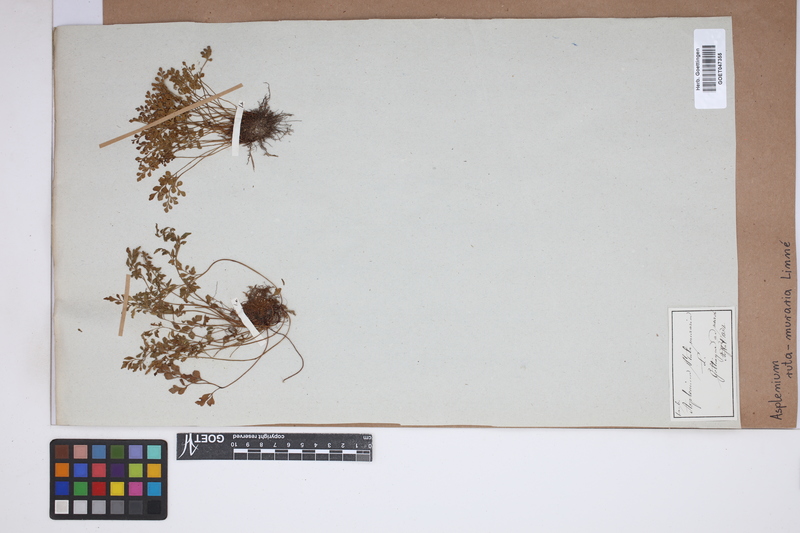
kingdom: Plantae
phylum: Tracheophyta
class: Polypodiopsida
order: Polypodiales
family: Aspleniaceae
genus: Asplenium
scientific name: Asplenium ruta-muraria
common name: Wall-rue
